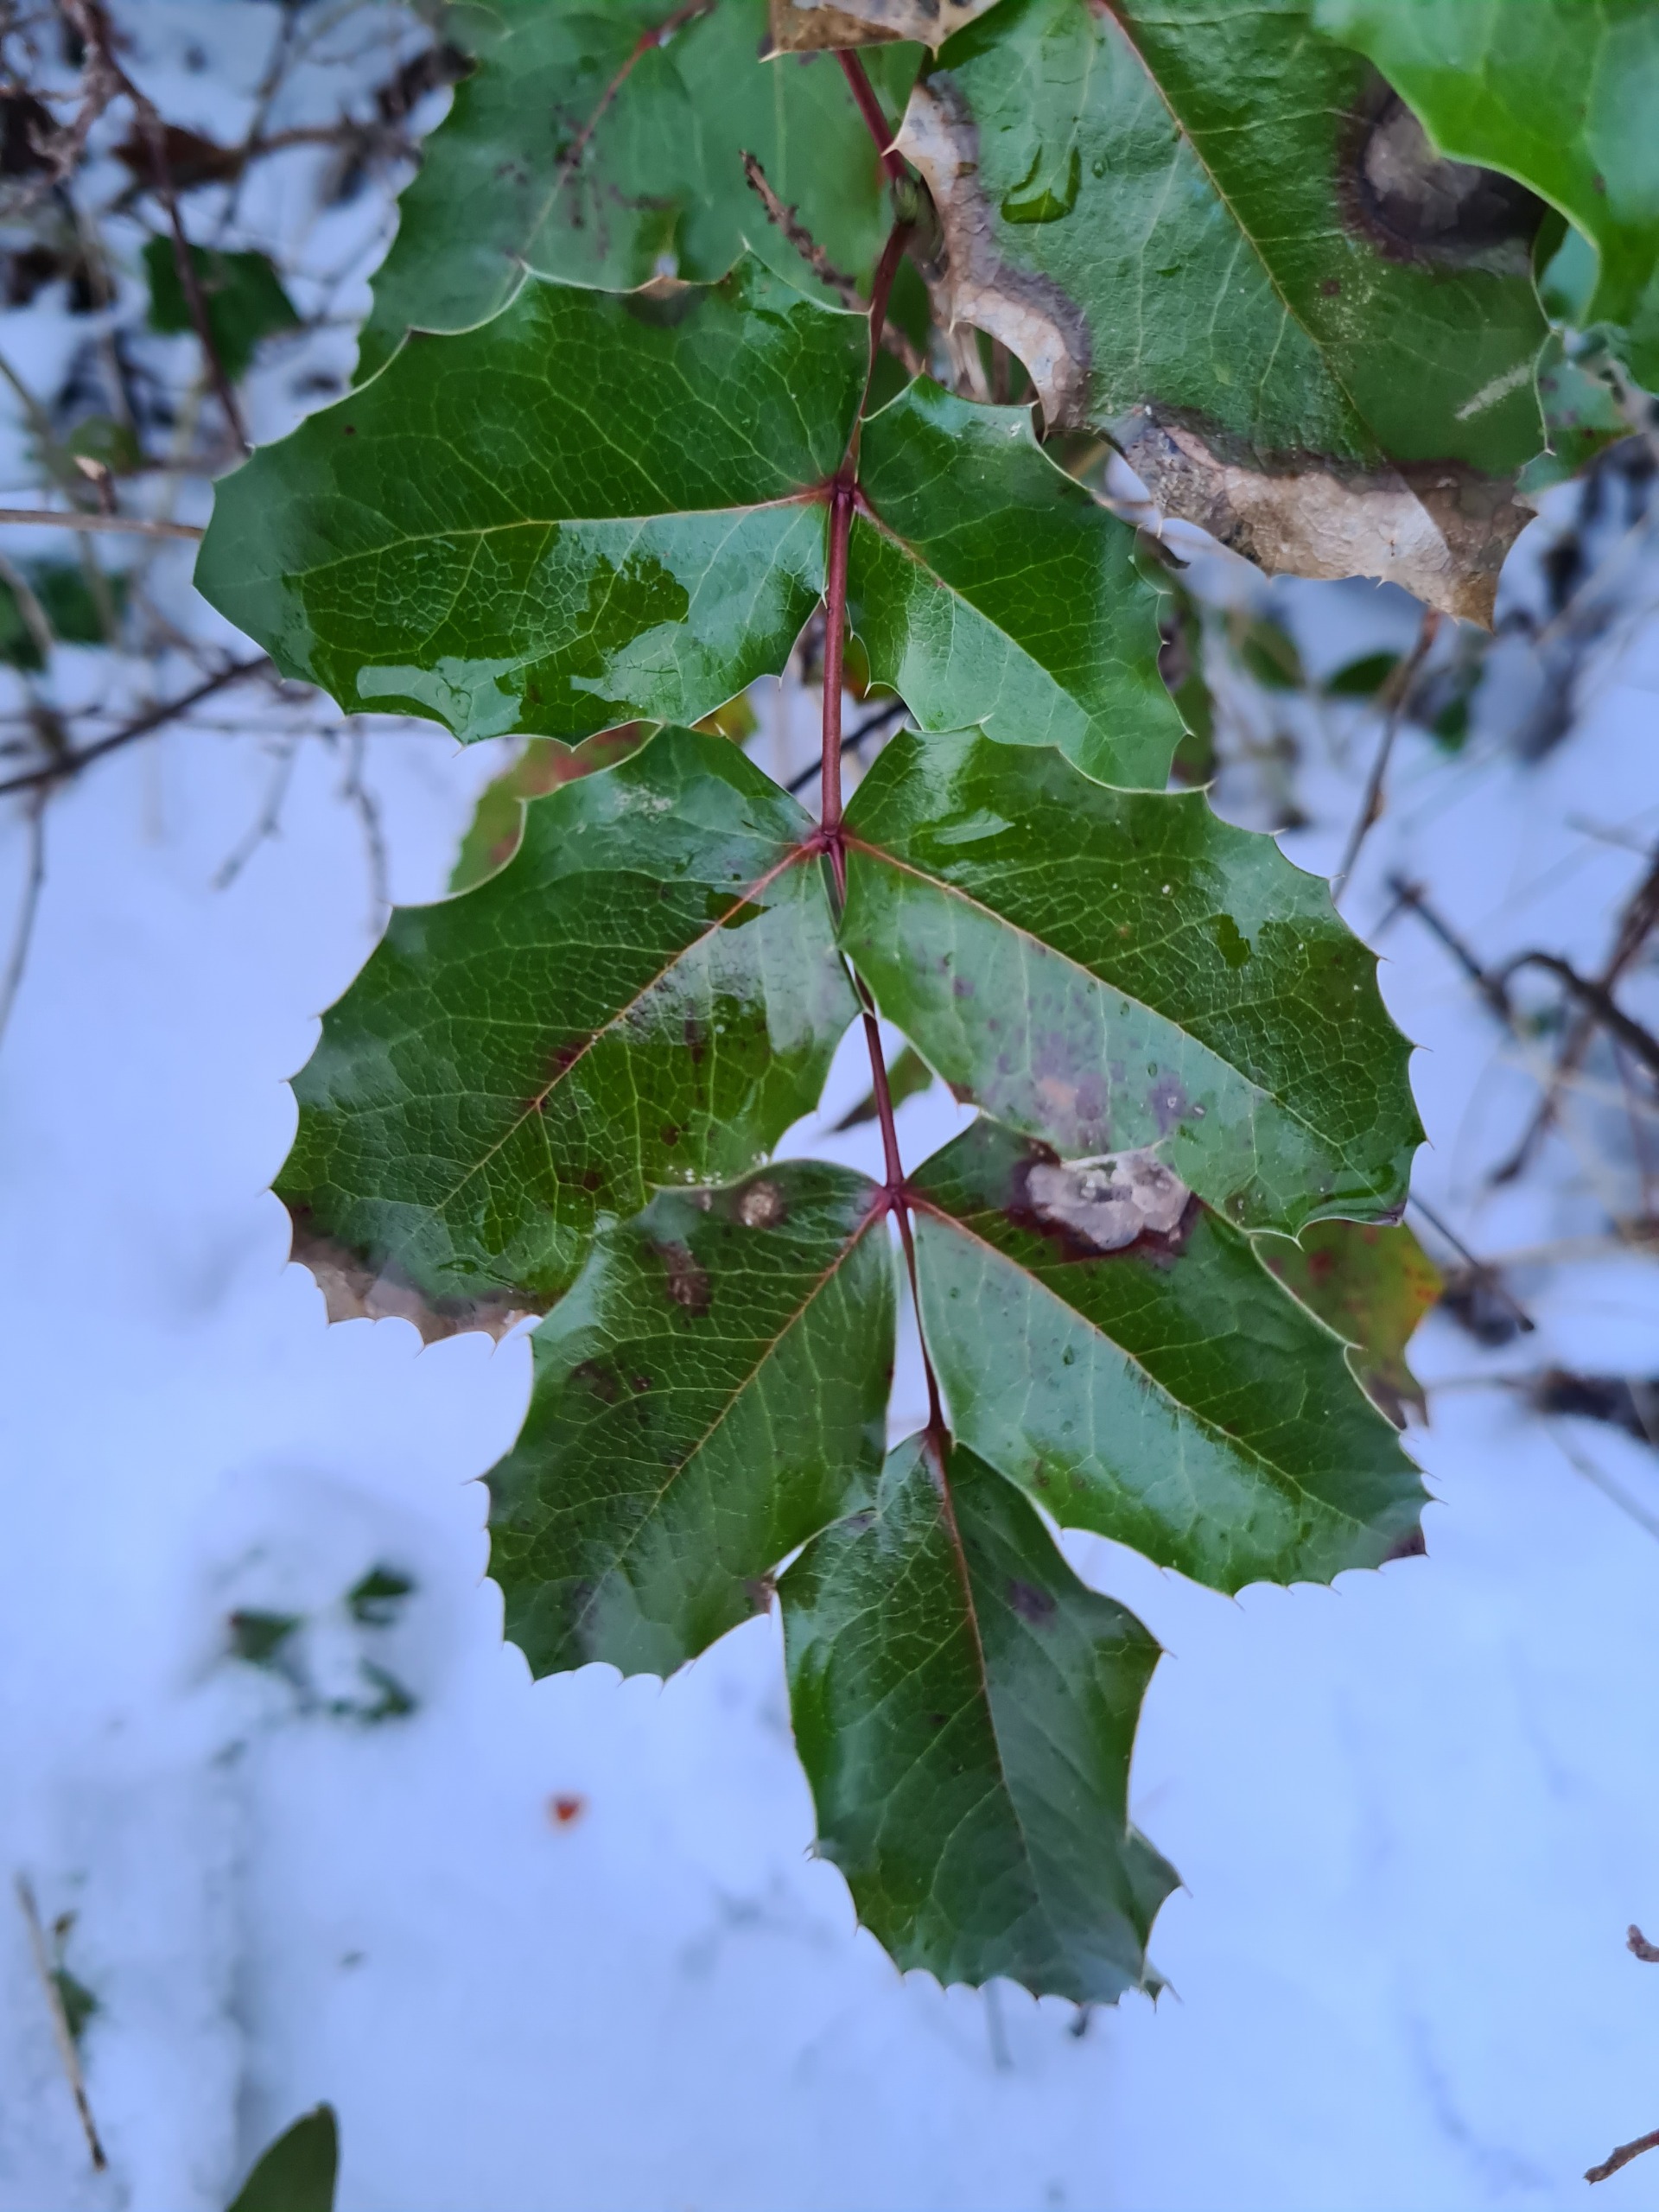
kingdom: Plantae
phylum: Tracheophyta
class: Magnoliopsida
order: Ranunculales
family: Berberidaceae
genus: Mahonia
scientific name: Mahonia aquifolium
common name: Almindelig mahonie
